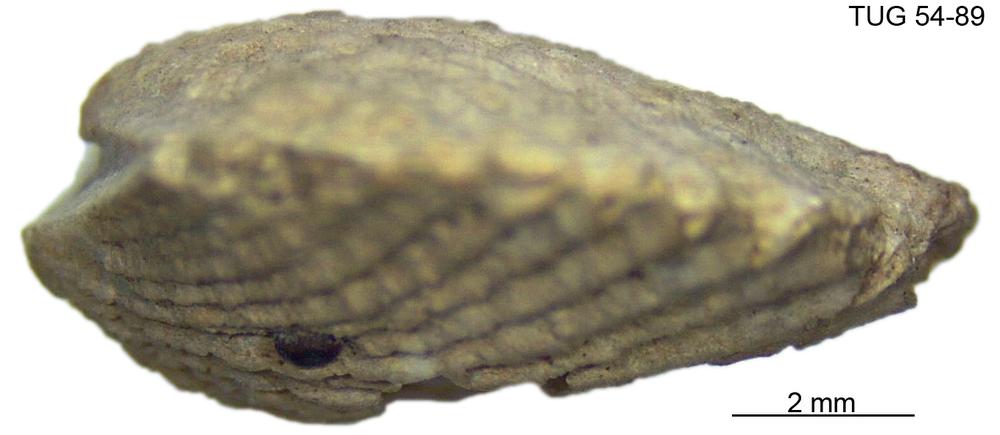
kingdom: Animalia
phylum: Brachiopoda
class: Rhynchonellata
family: Dolerorthidae
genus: Glyptorthis
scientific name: Glyptorthis plana
